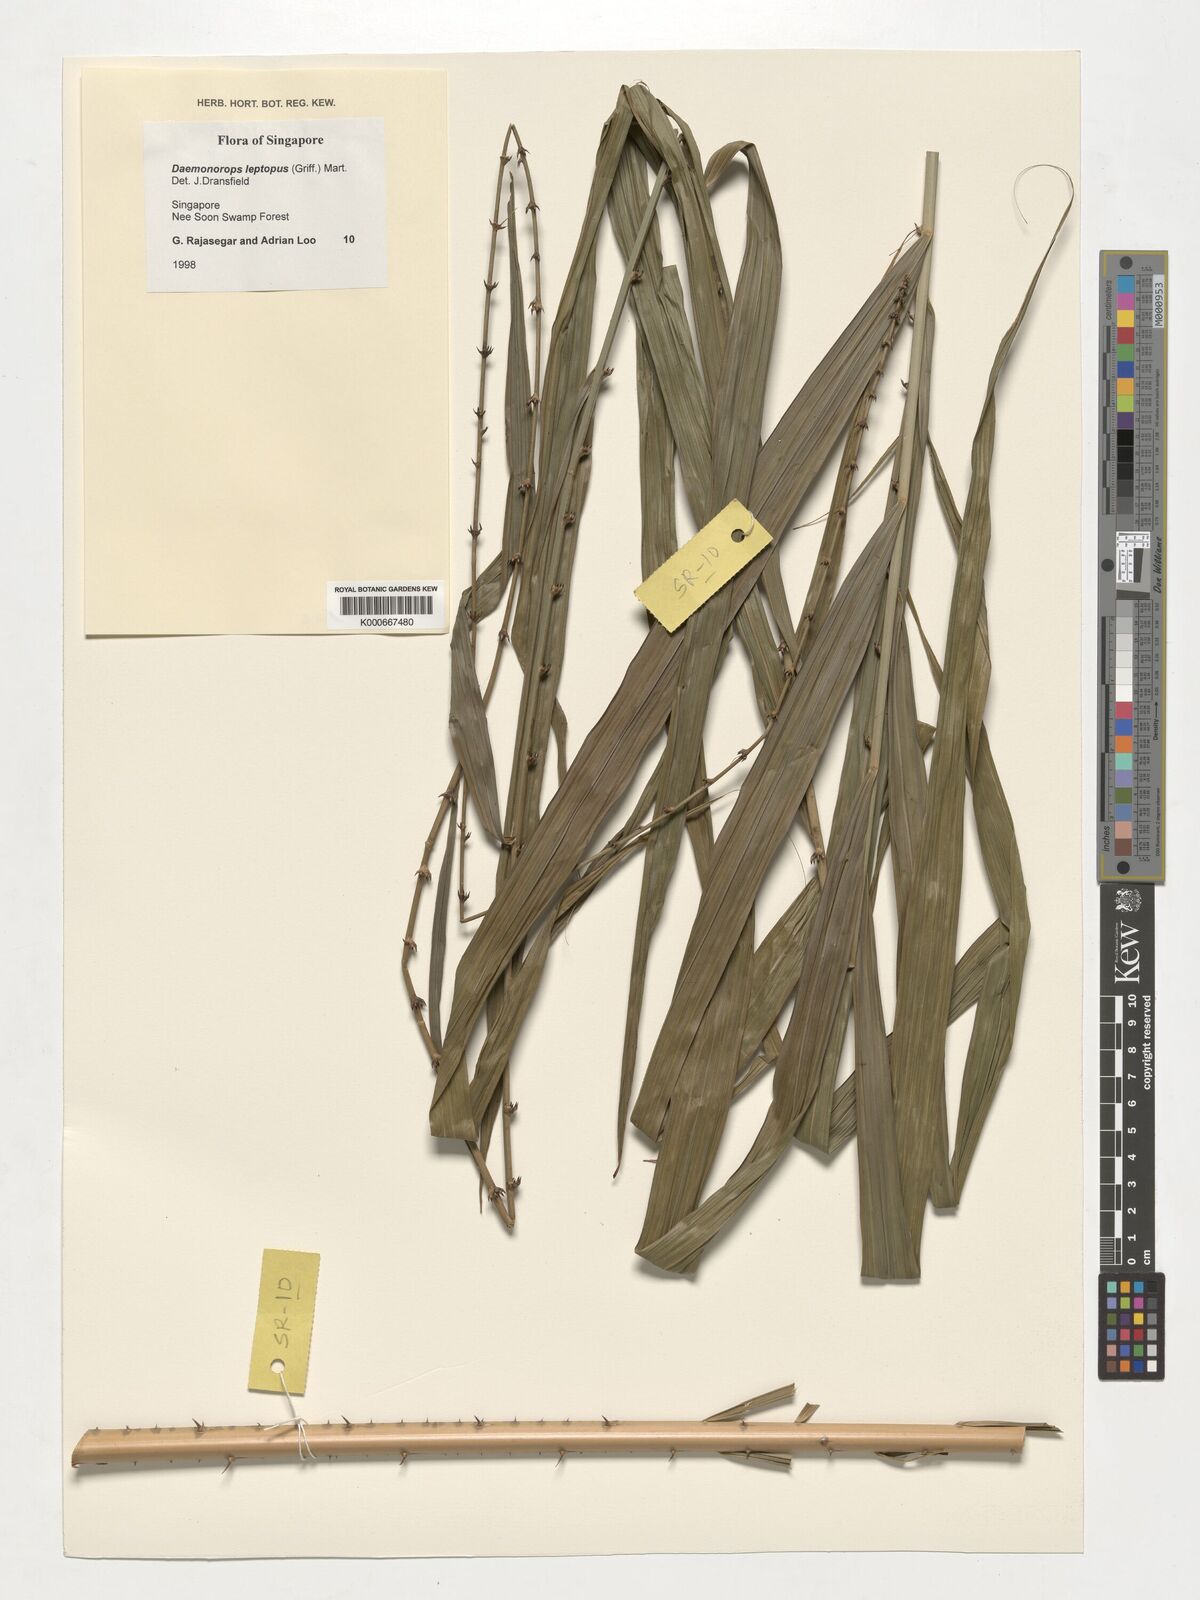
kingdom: Plantae
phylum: Tracheophyta
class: Liliopsida
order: Arecales
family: Arecaceae
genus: Calamus
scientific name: Calamus leptopus
